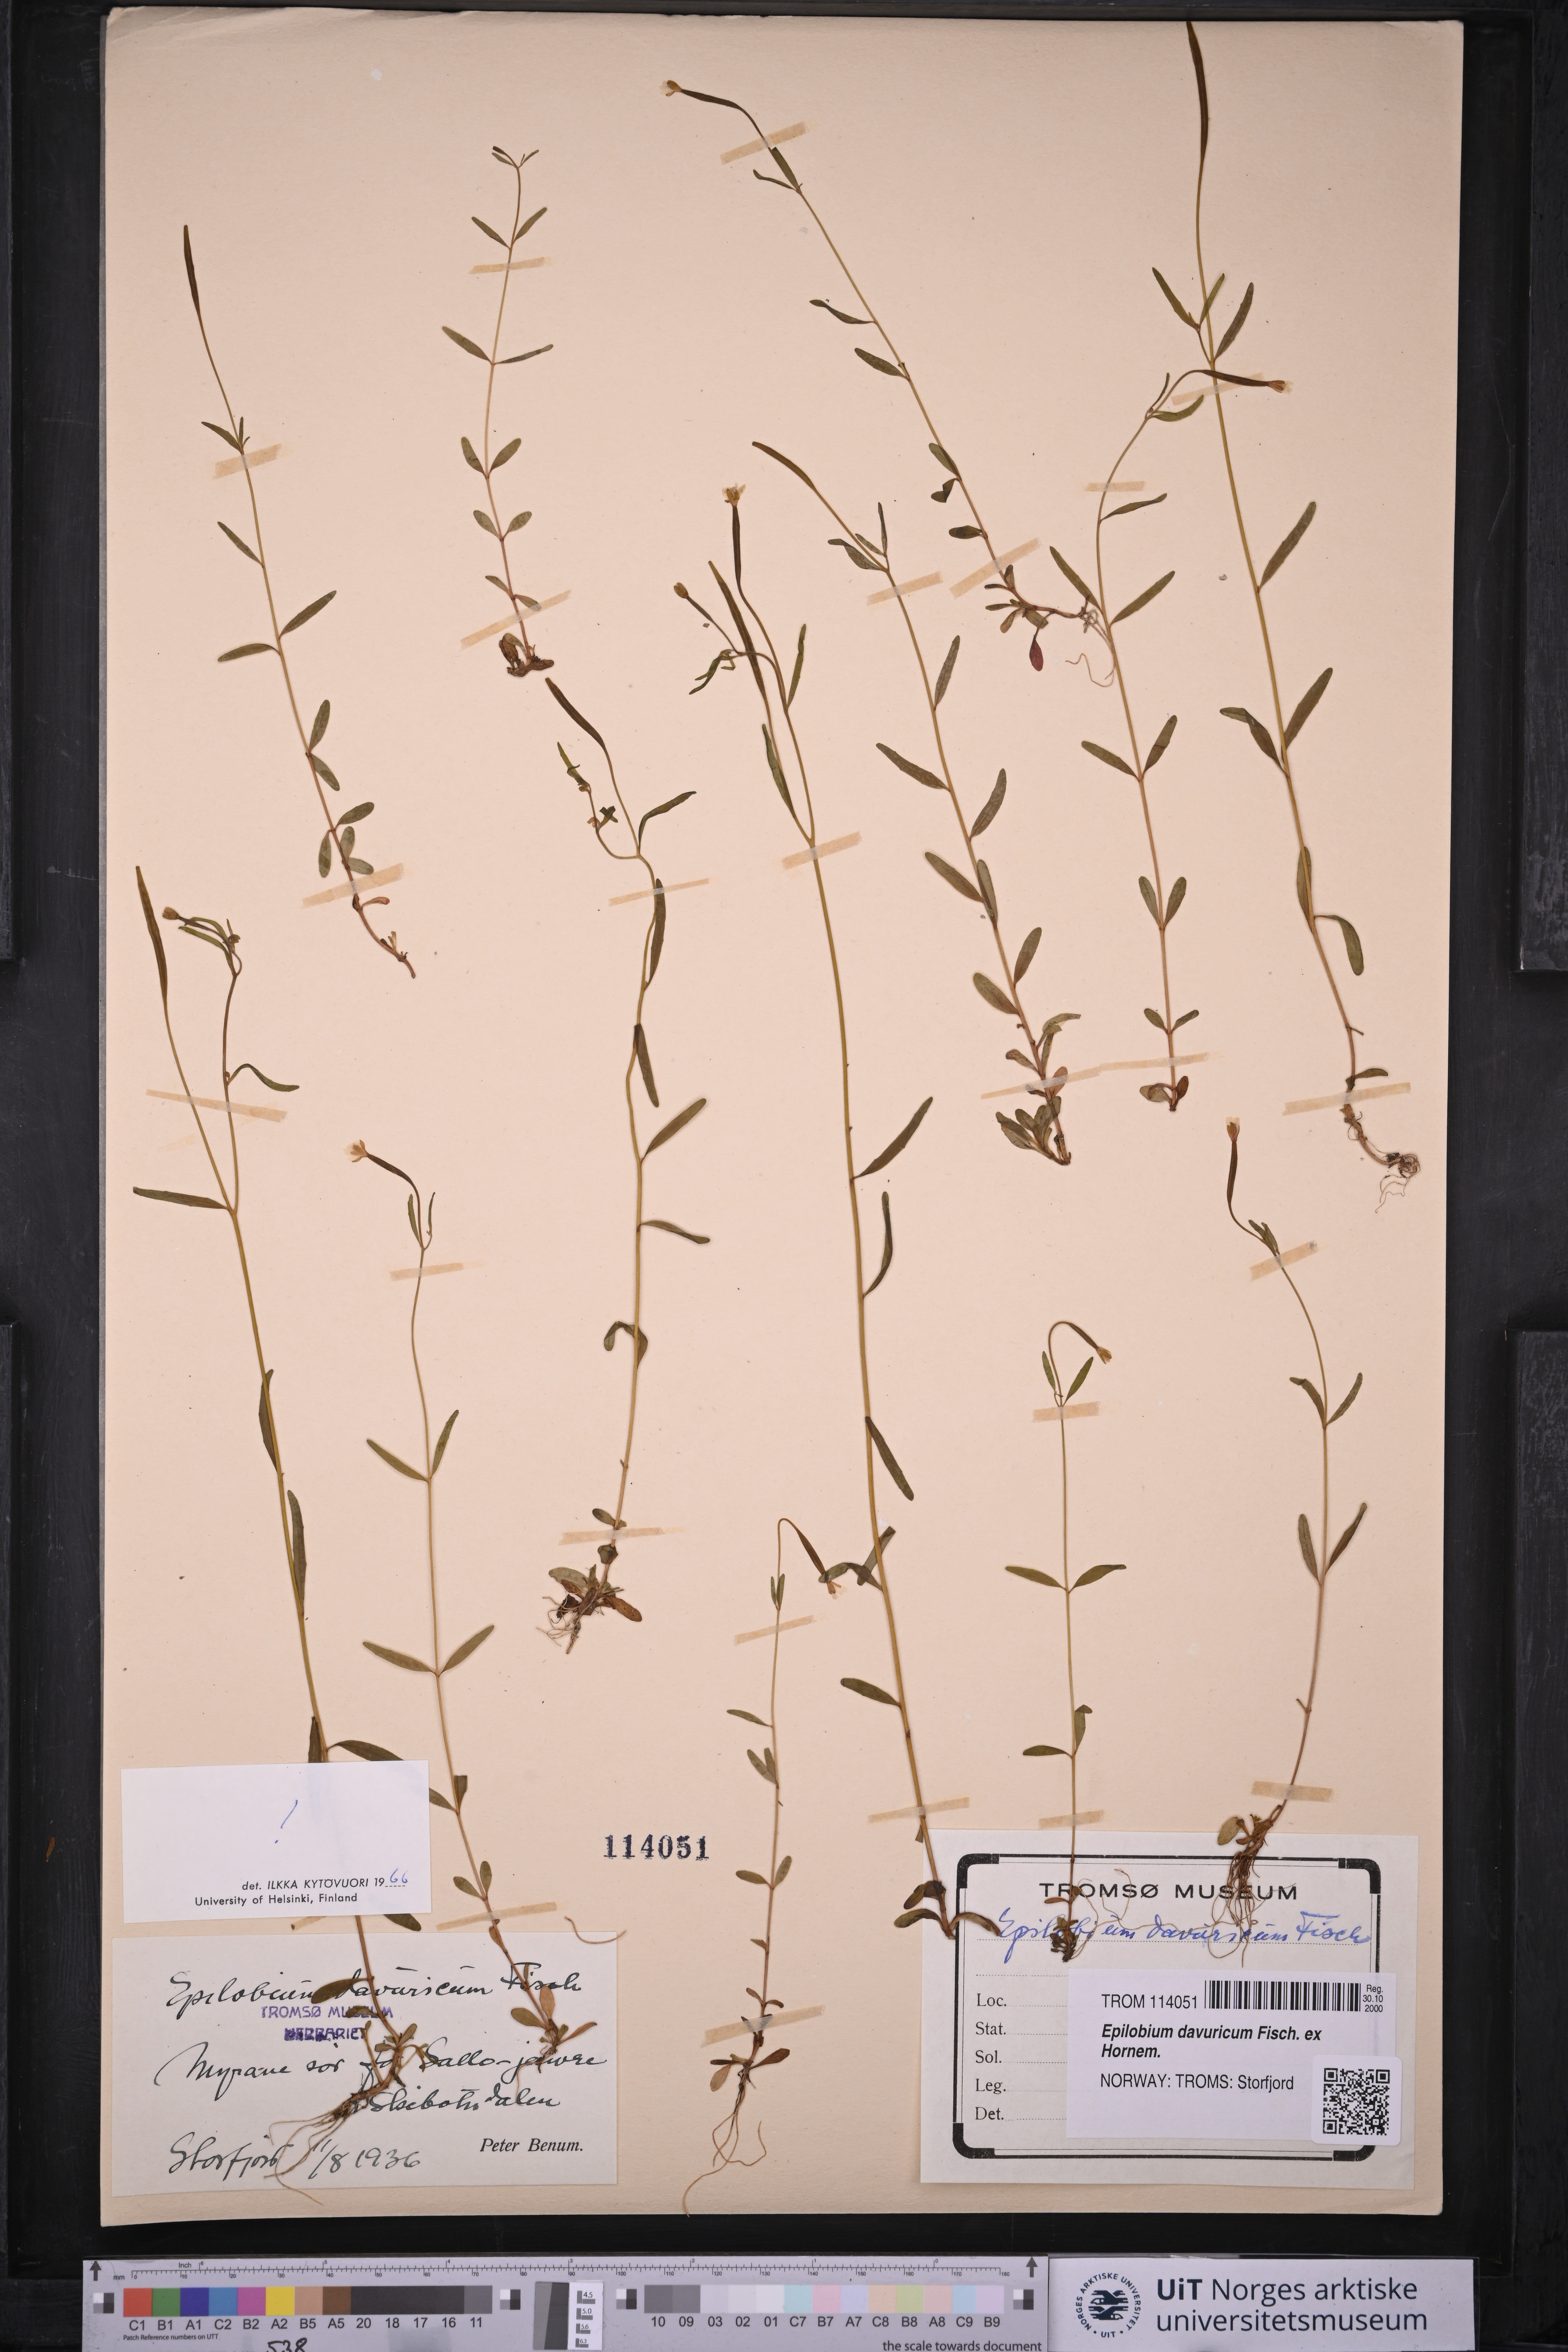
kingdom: Plantae
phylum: Tracheophyta
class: Magnoliopsida
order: Myrtales
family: Onagraceae
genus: Epilobium
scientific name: Epilobium davuricum
